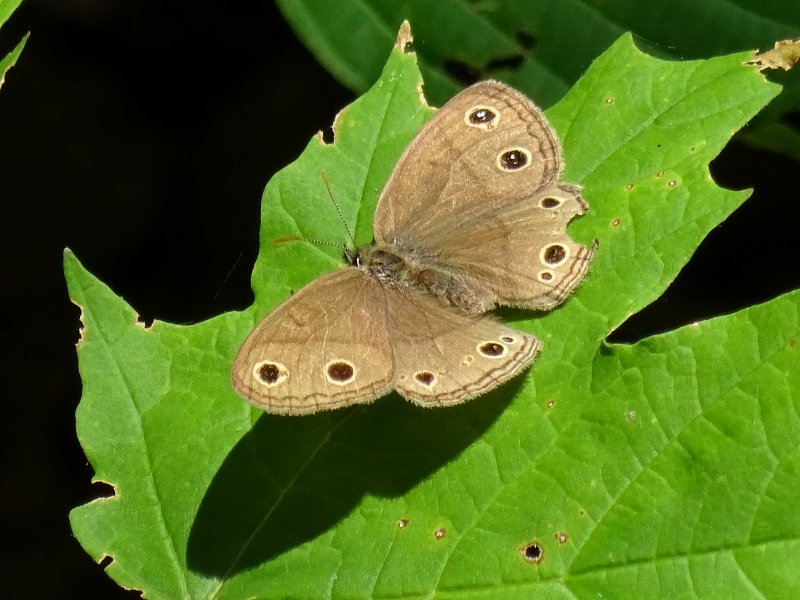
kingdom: Animalia
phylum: Arthropoda
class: Insecta
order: Lepidoptera
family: Nymphalidae
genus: Euptychia
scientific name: Euptychia cymela
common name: Little Wood Satyr
